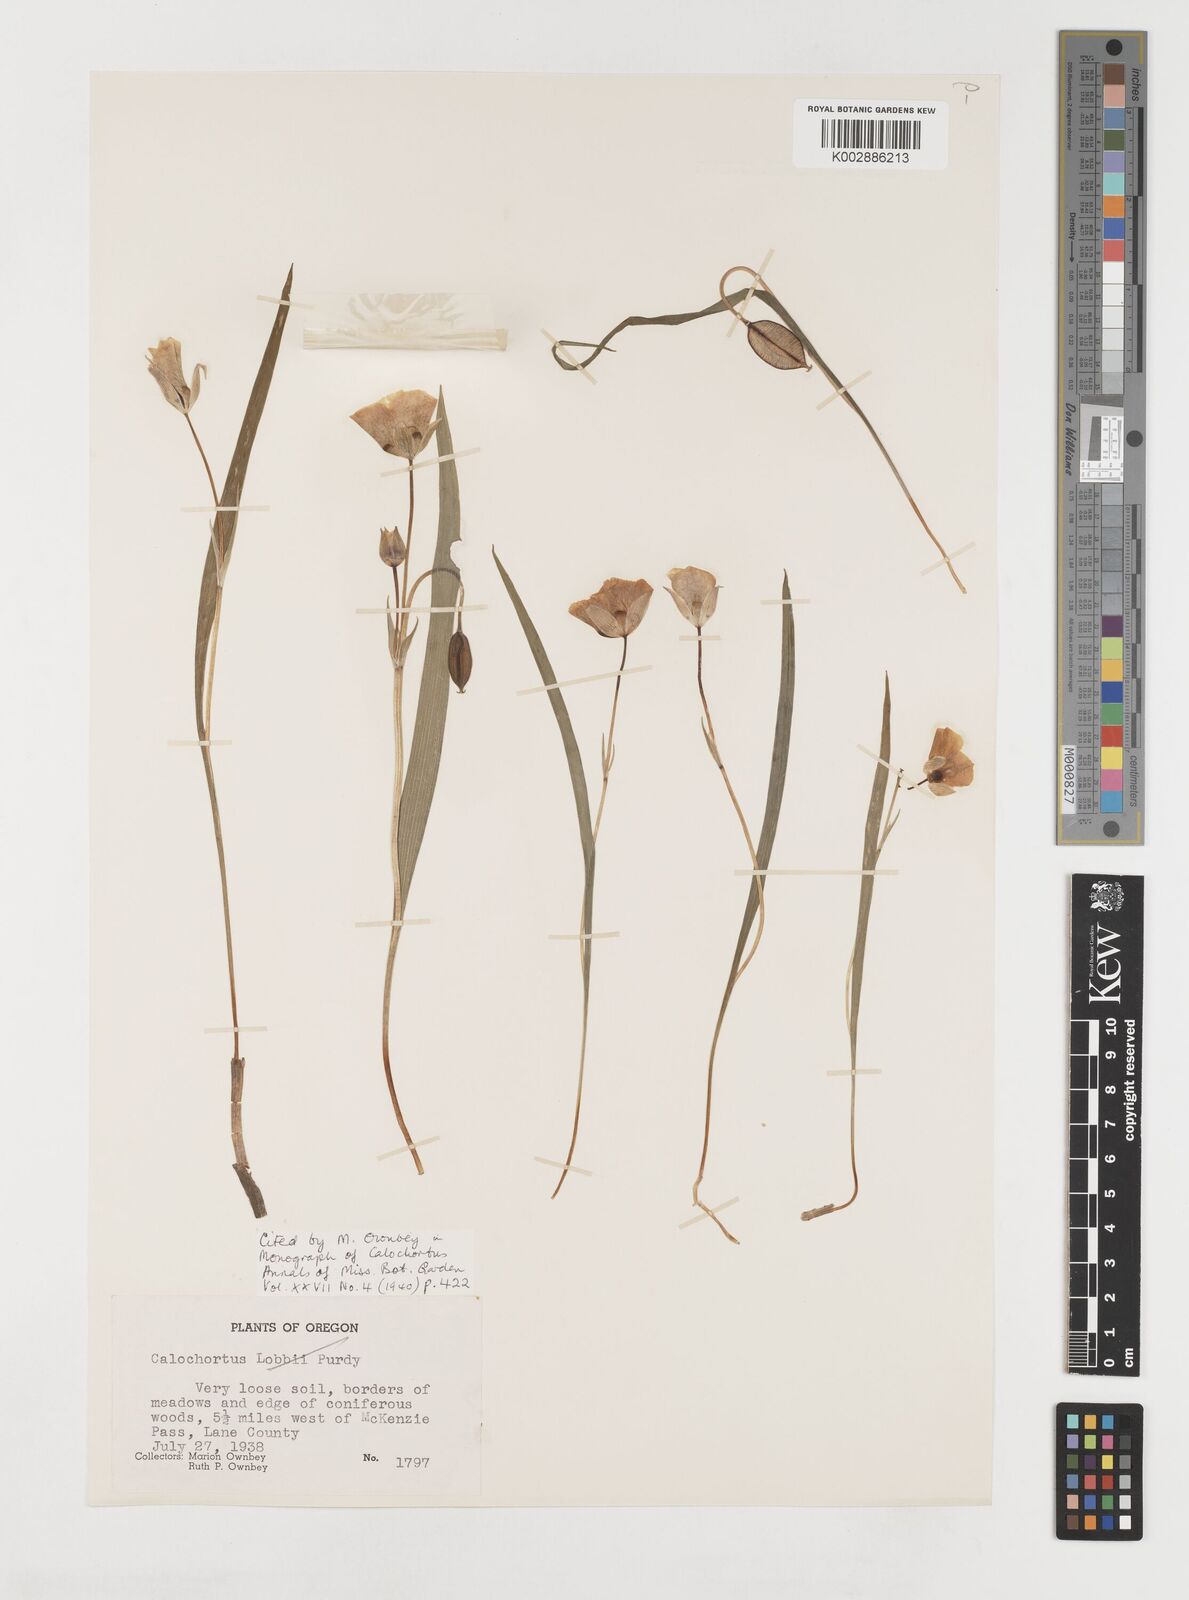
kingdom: Plantae
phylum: Tracheophyta
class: Liliopsida
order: Liliales
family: Liliaceae
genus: Calochortus
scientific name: Calochortus subalpinus
